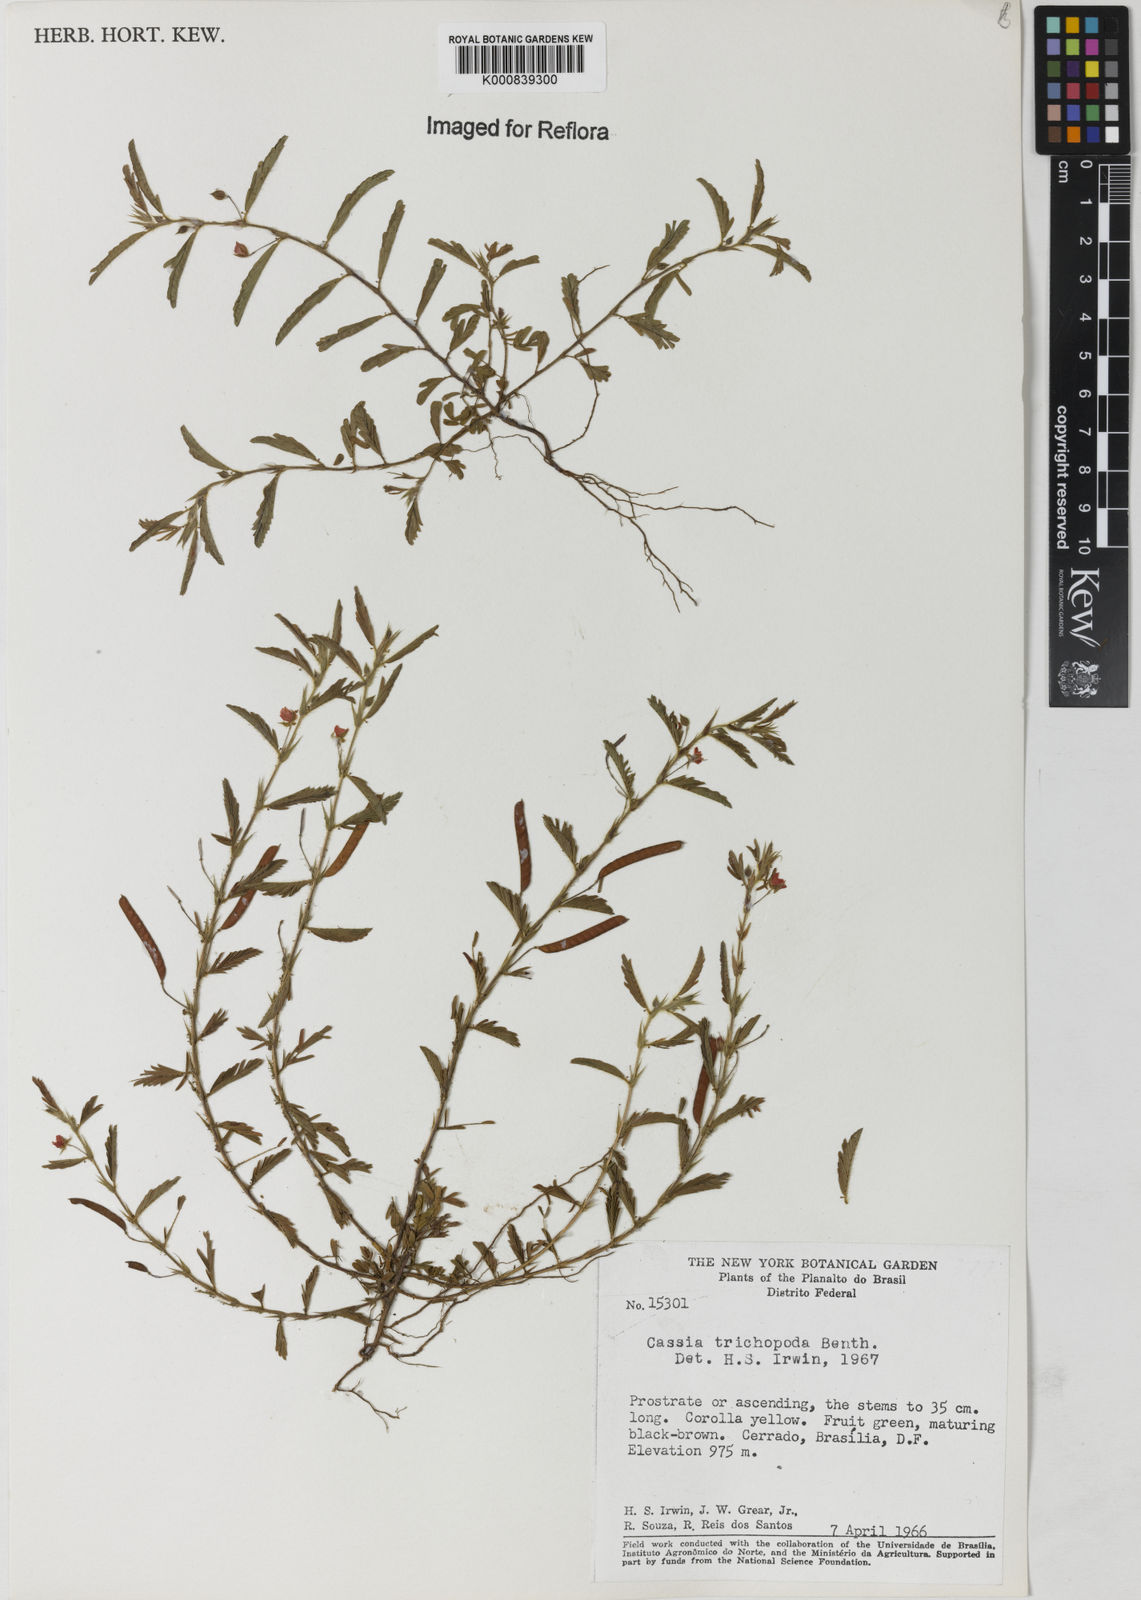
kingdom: Plantae
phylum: Tracheophyta
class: Magnoliopsida
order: Fabales
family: Fabaceae
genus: Chamaecrista
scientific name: Chamaecrista trichopoda
